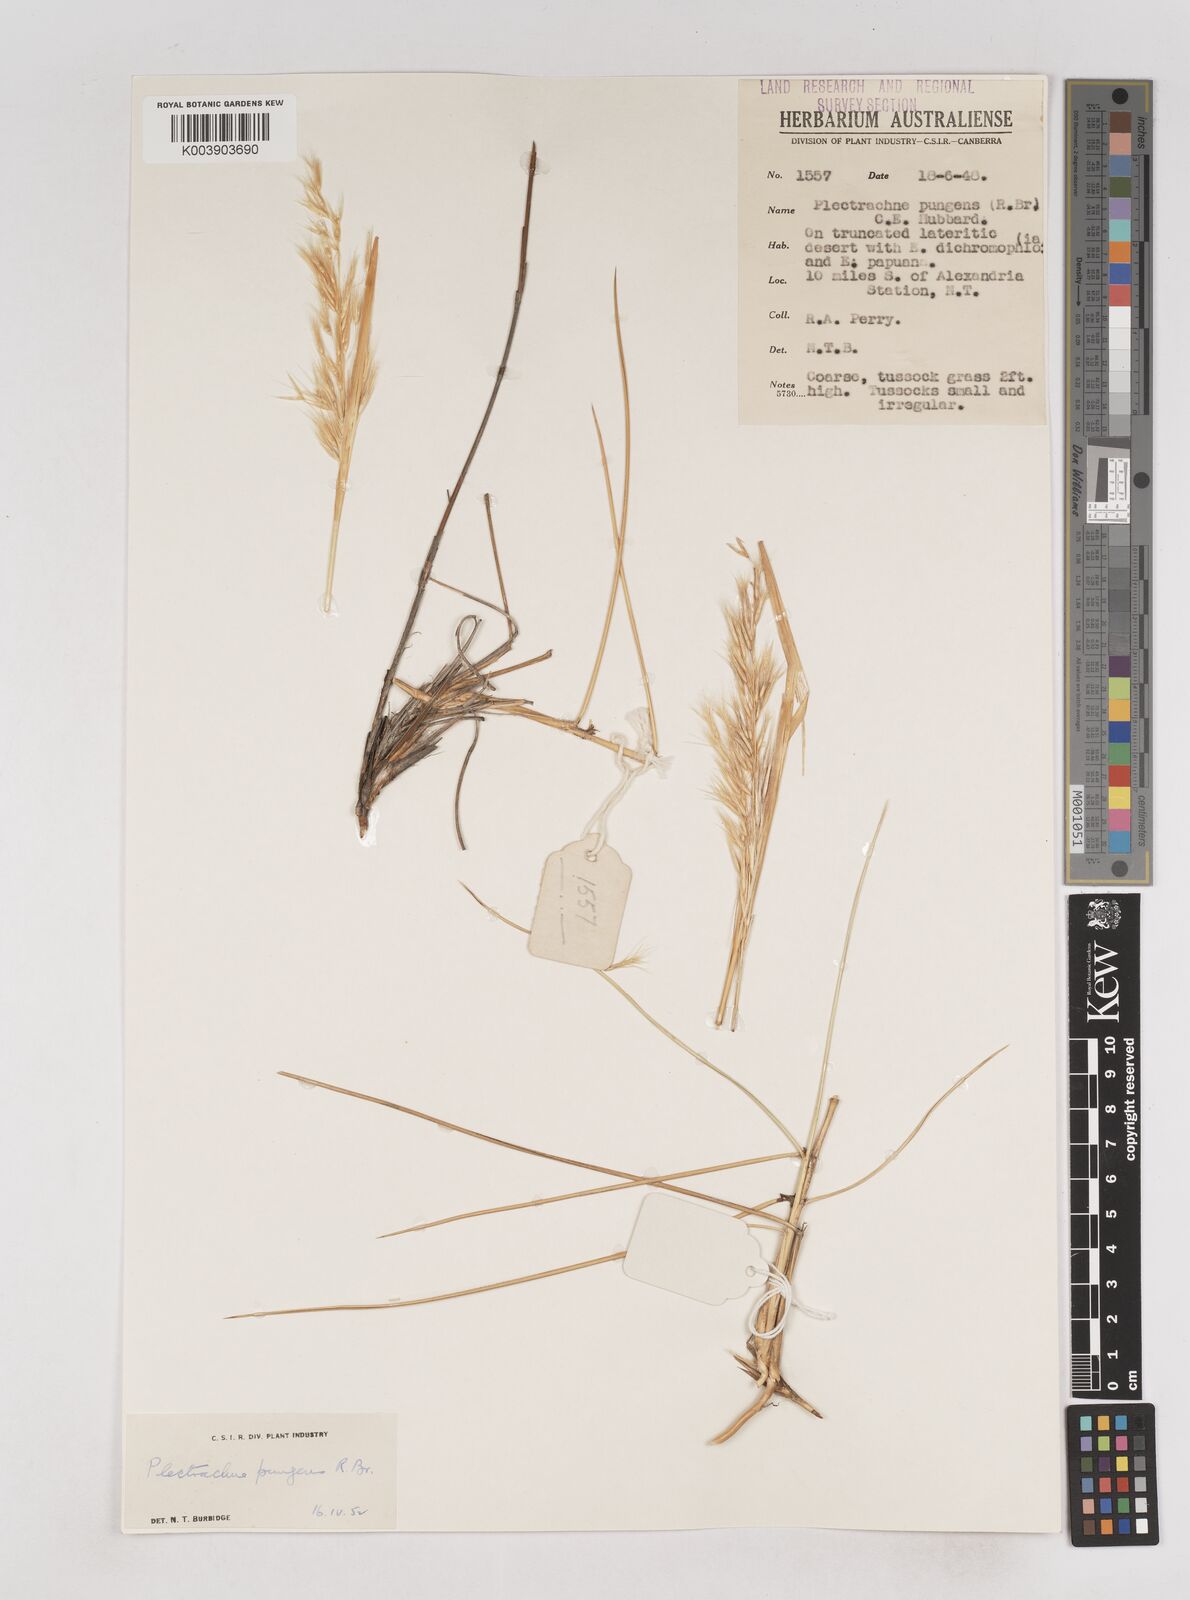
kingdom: Plantae
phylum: Tracheophyta
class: Liliopsida
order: Poales
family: Poaceae
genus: Triodia
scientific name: Triodia bitextura
